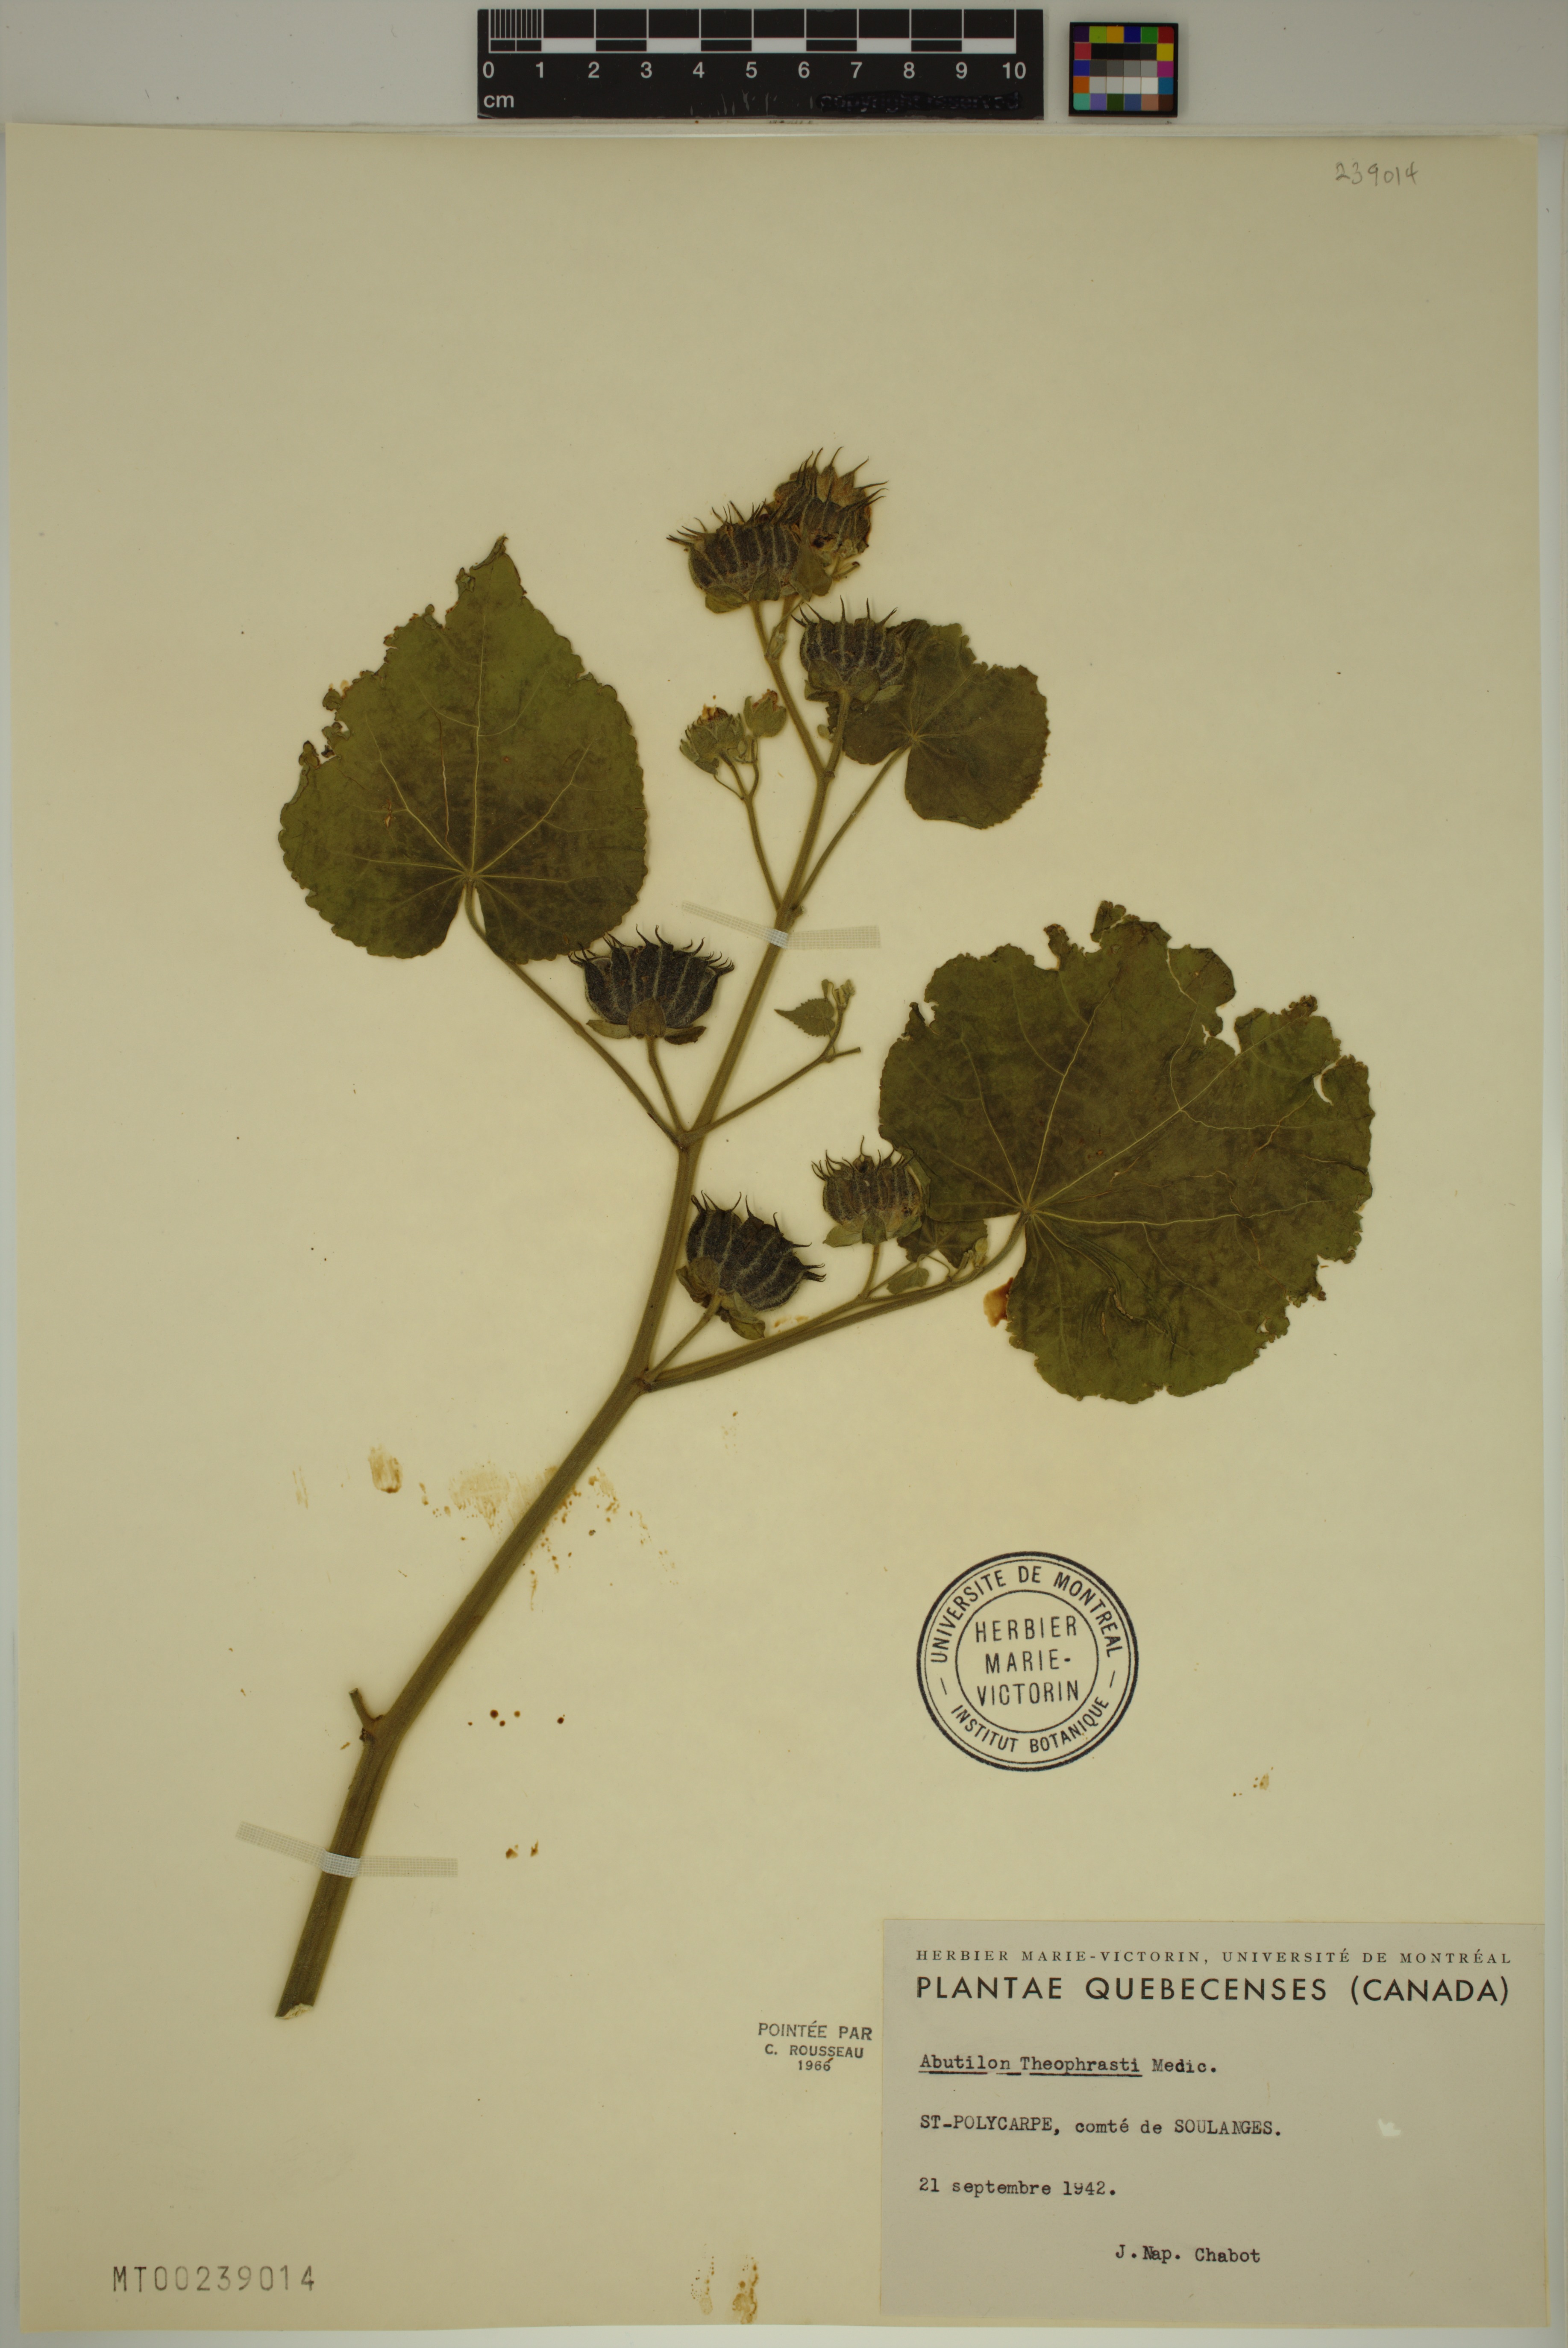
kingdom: Plantae
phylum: Tracheophyta
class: Magnoliopsida
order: Malvales
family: Malvaceae
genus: Abutilon
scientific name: Abutilon theophrasti
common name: Velvetleaf
